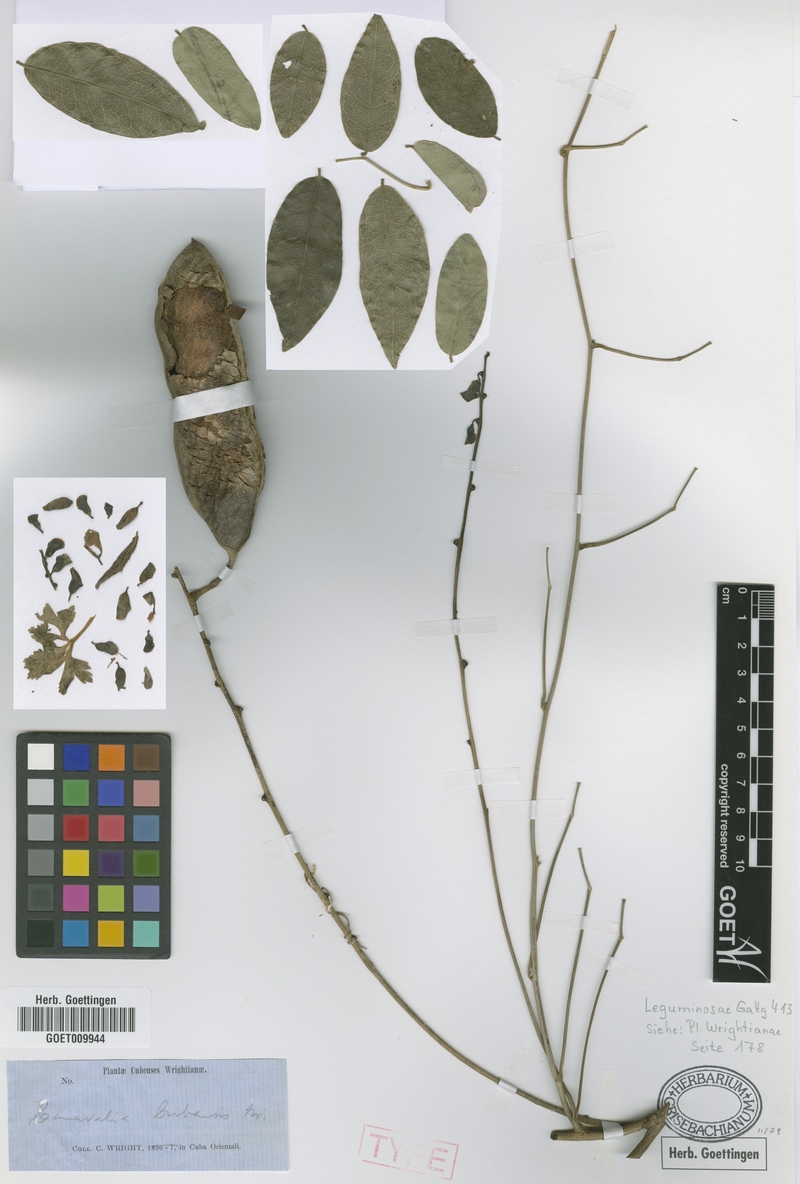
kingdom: Plantae
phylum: Tracheophyta
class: Magnoliopsida
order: Fabales
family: Fabaceae
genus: Canavalia
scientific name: Canavalia nitida
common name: Cathie's-bean
